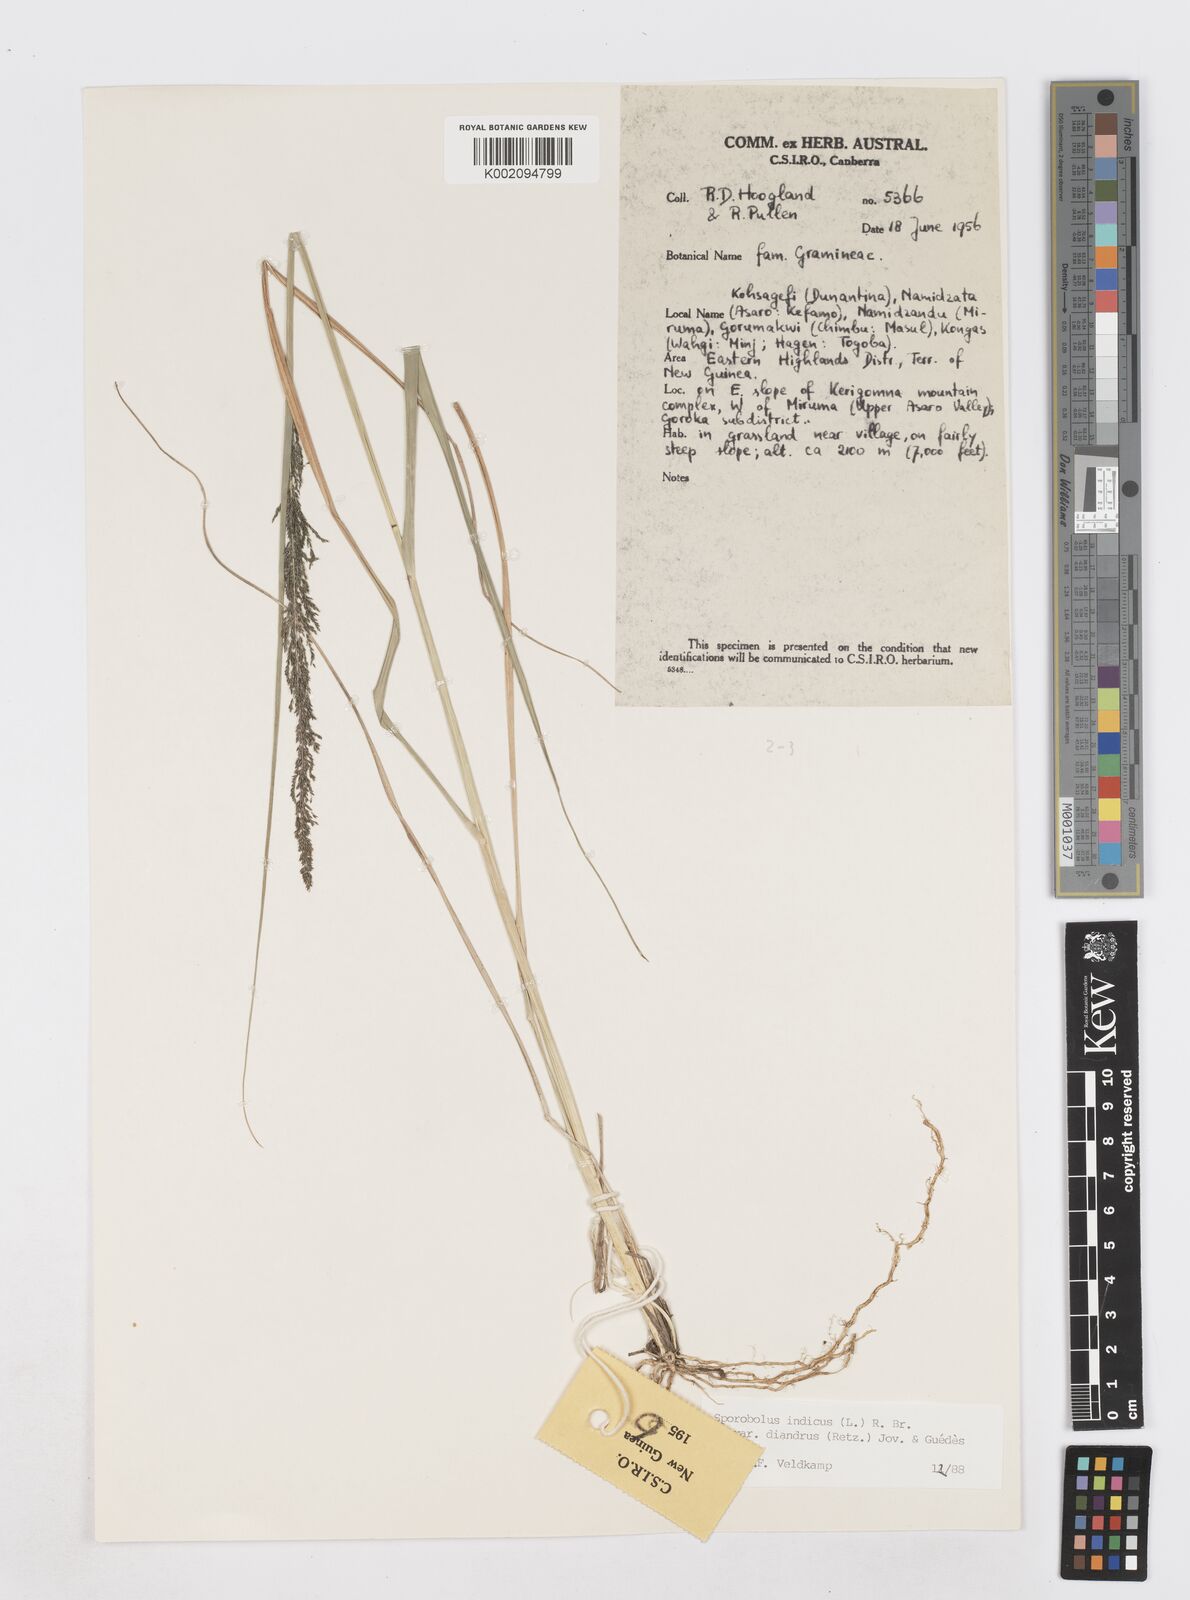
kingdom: Plantae
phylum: Tracheophyta
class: Liliopsida
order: Poales
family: Poaceae
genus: Sporobolus
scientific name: Sporobolus diandrus
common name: Tussock dropseed
